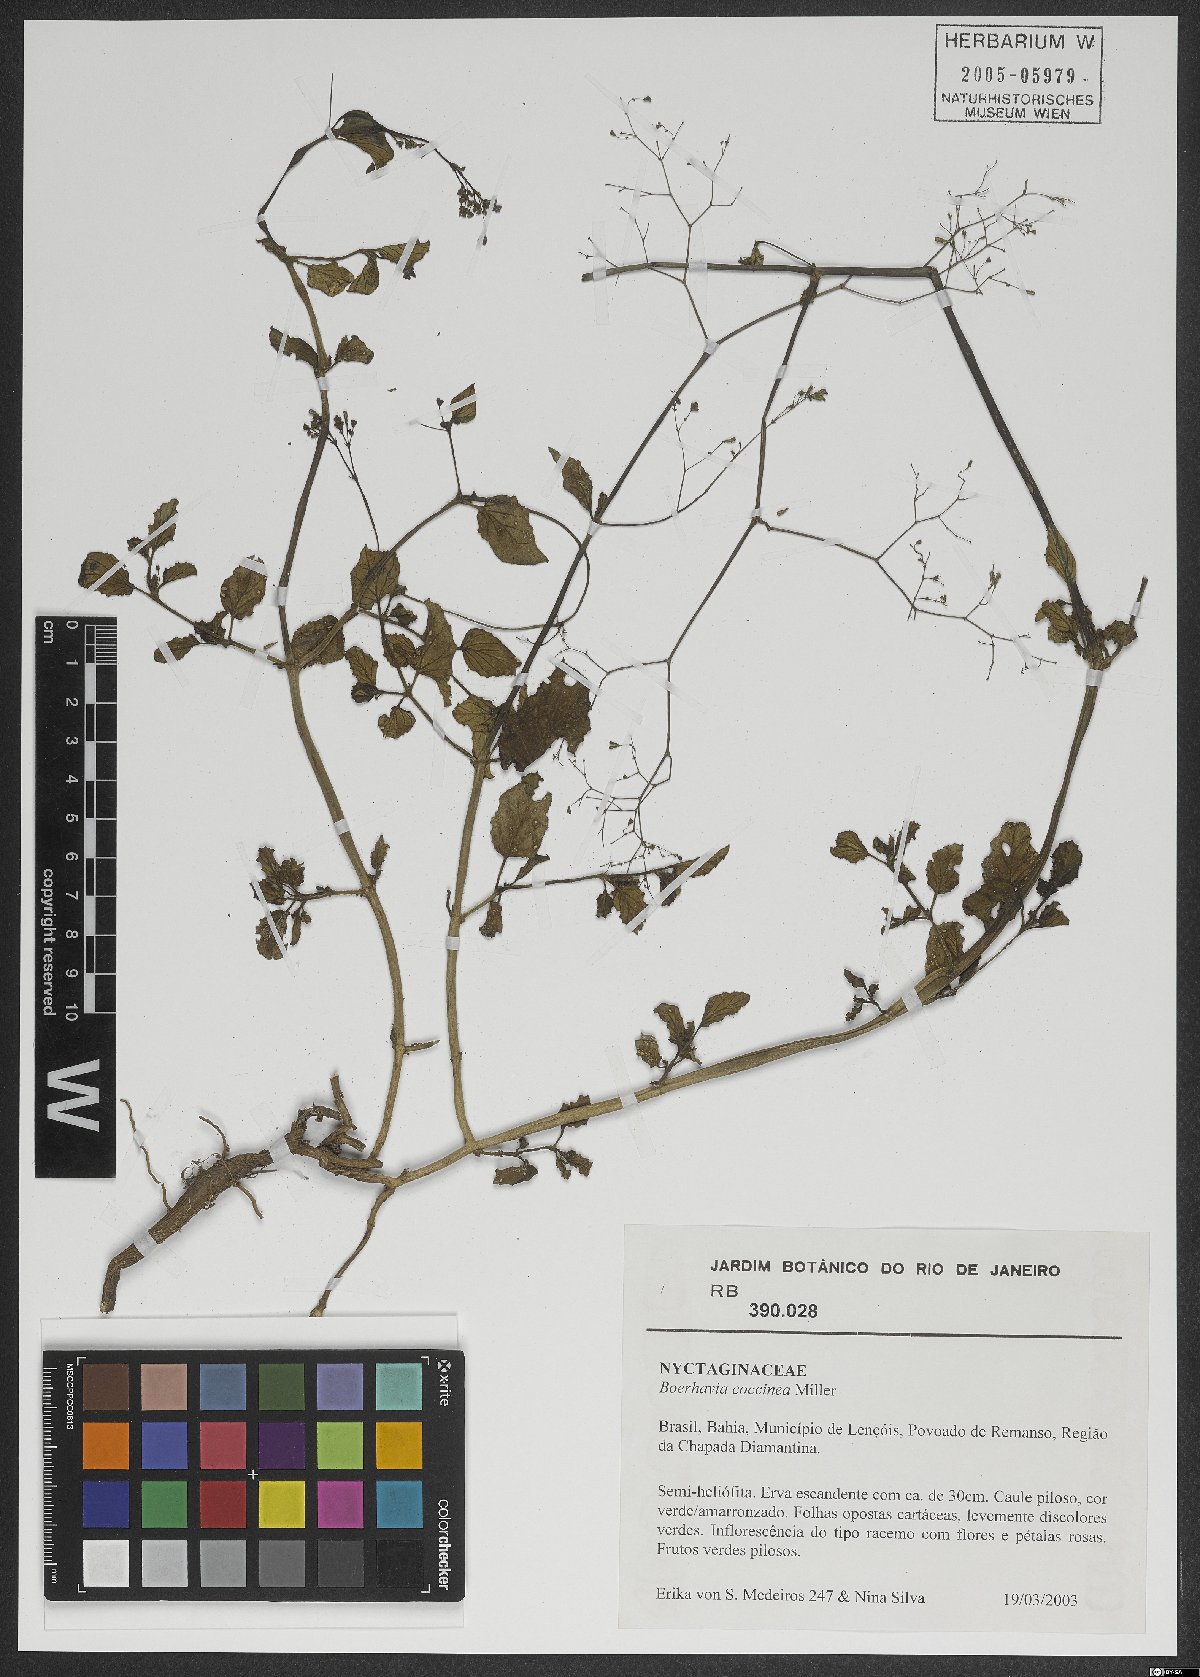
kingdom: Plantae
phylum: Tracheophyta
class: Magnoliopsida
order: Caryophyllales
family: Nyctaginaceae
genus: Boerhavia
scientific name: Boerhavia coccinea
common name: Scarlet spiderling
